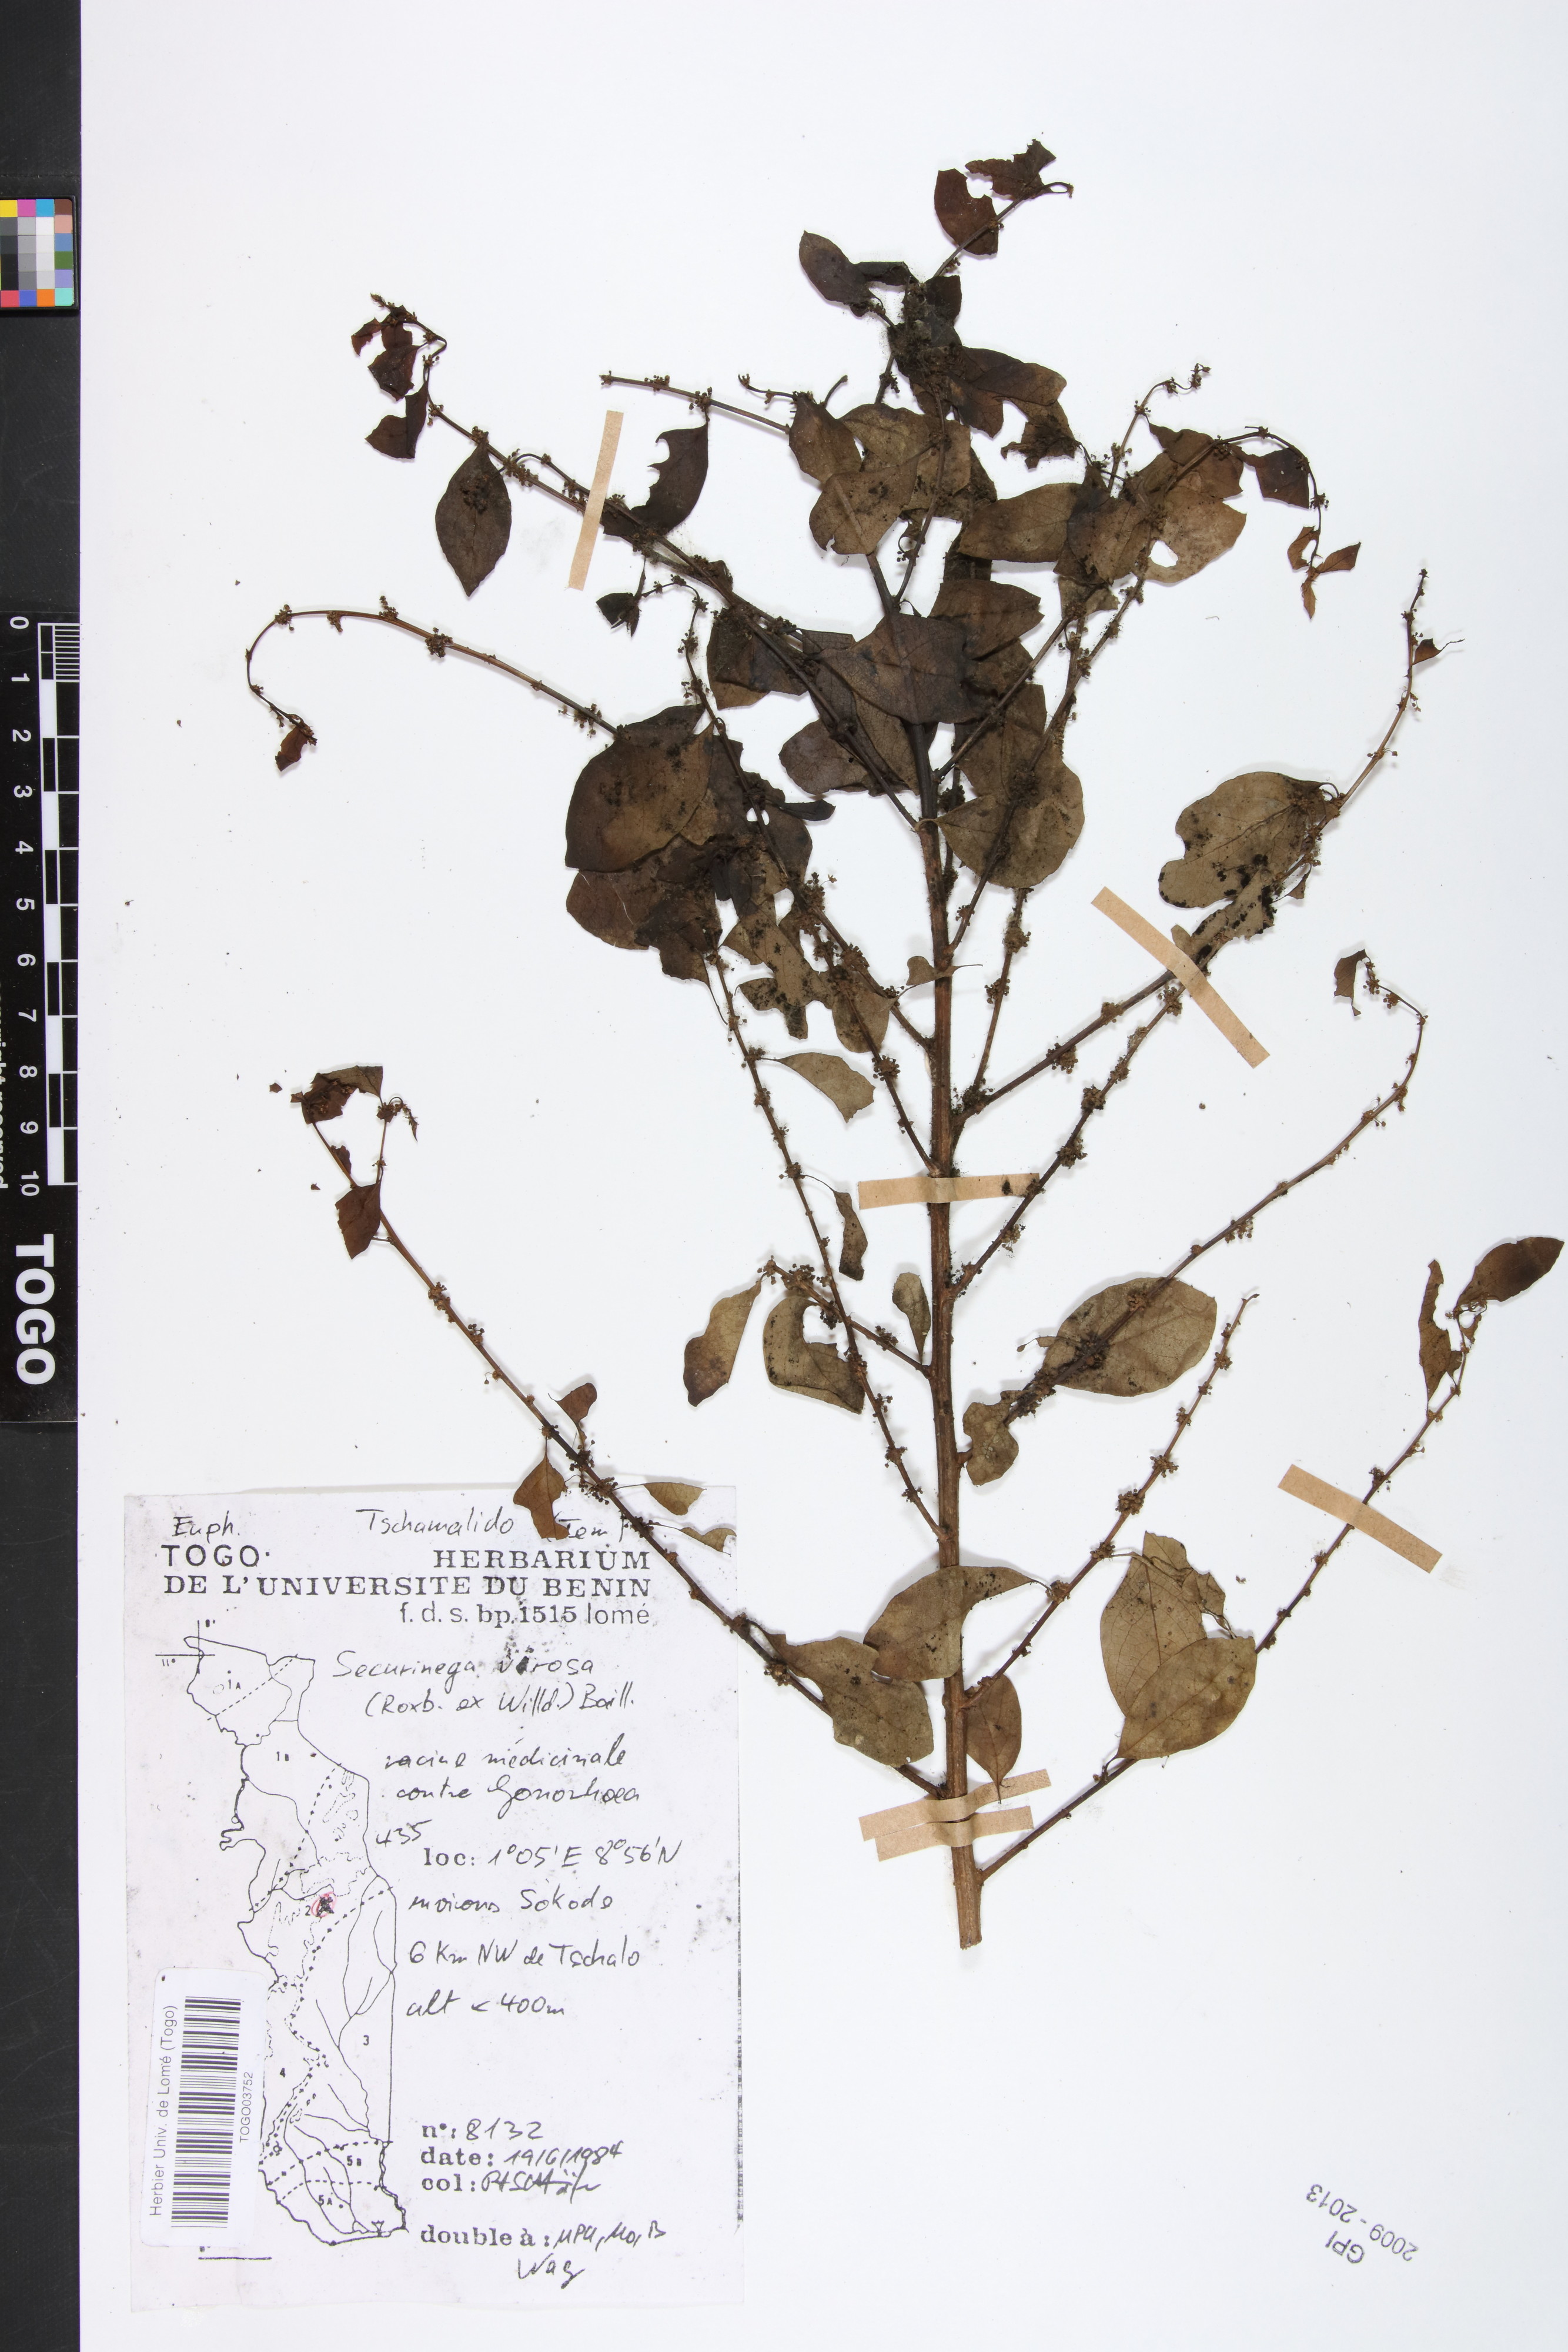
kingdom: Plantae
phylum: Tracheophyta
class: Magnoliopsida
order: Malpighiales
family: Phyllanthaceae
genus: Flueggea
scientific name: Flueggea virosa
